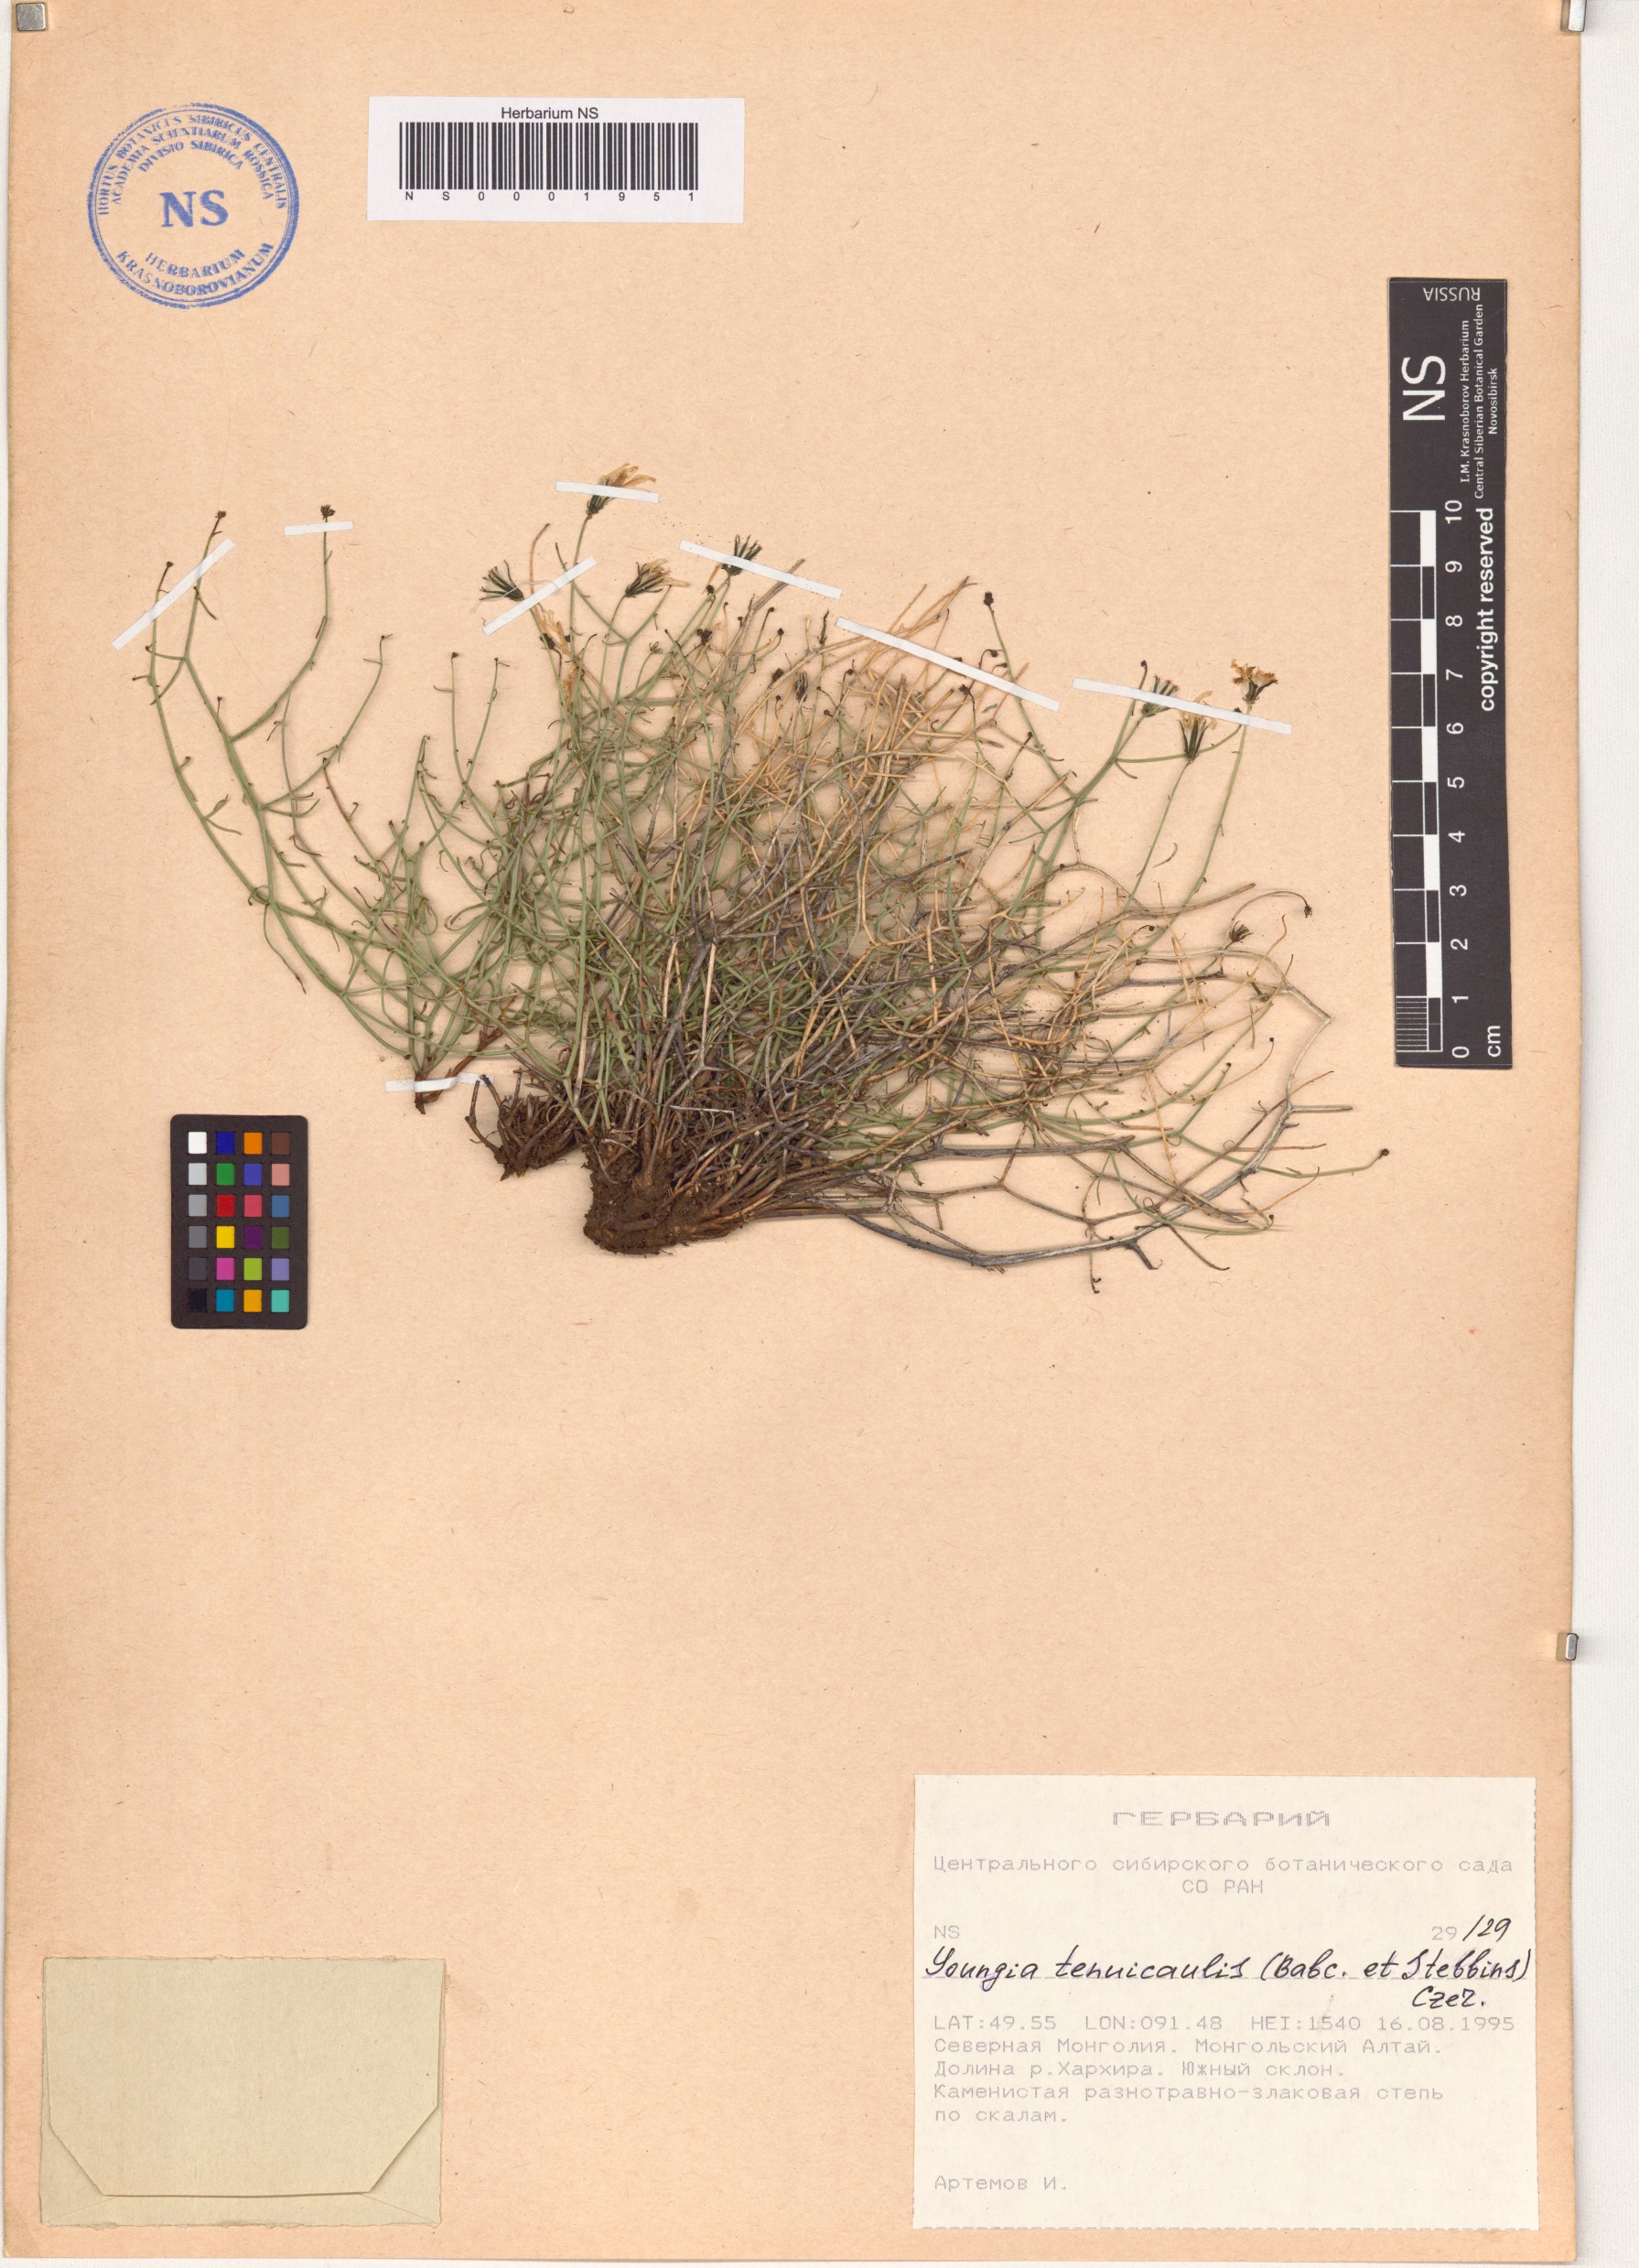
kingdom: Plantae
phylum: Tracheophyta
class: Magnoliopsida
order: Asterales
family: Asteraceae
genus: Crepidiastrum
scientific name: Crepidiastrum akagii
